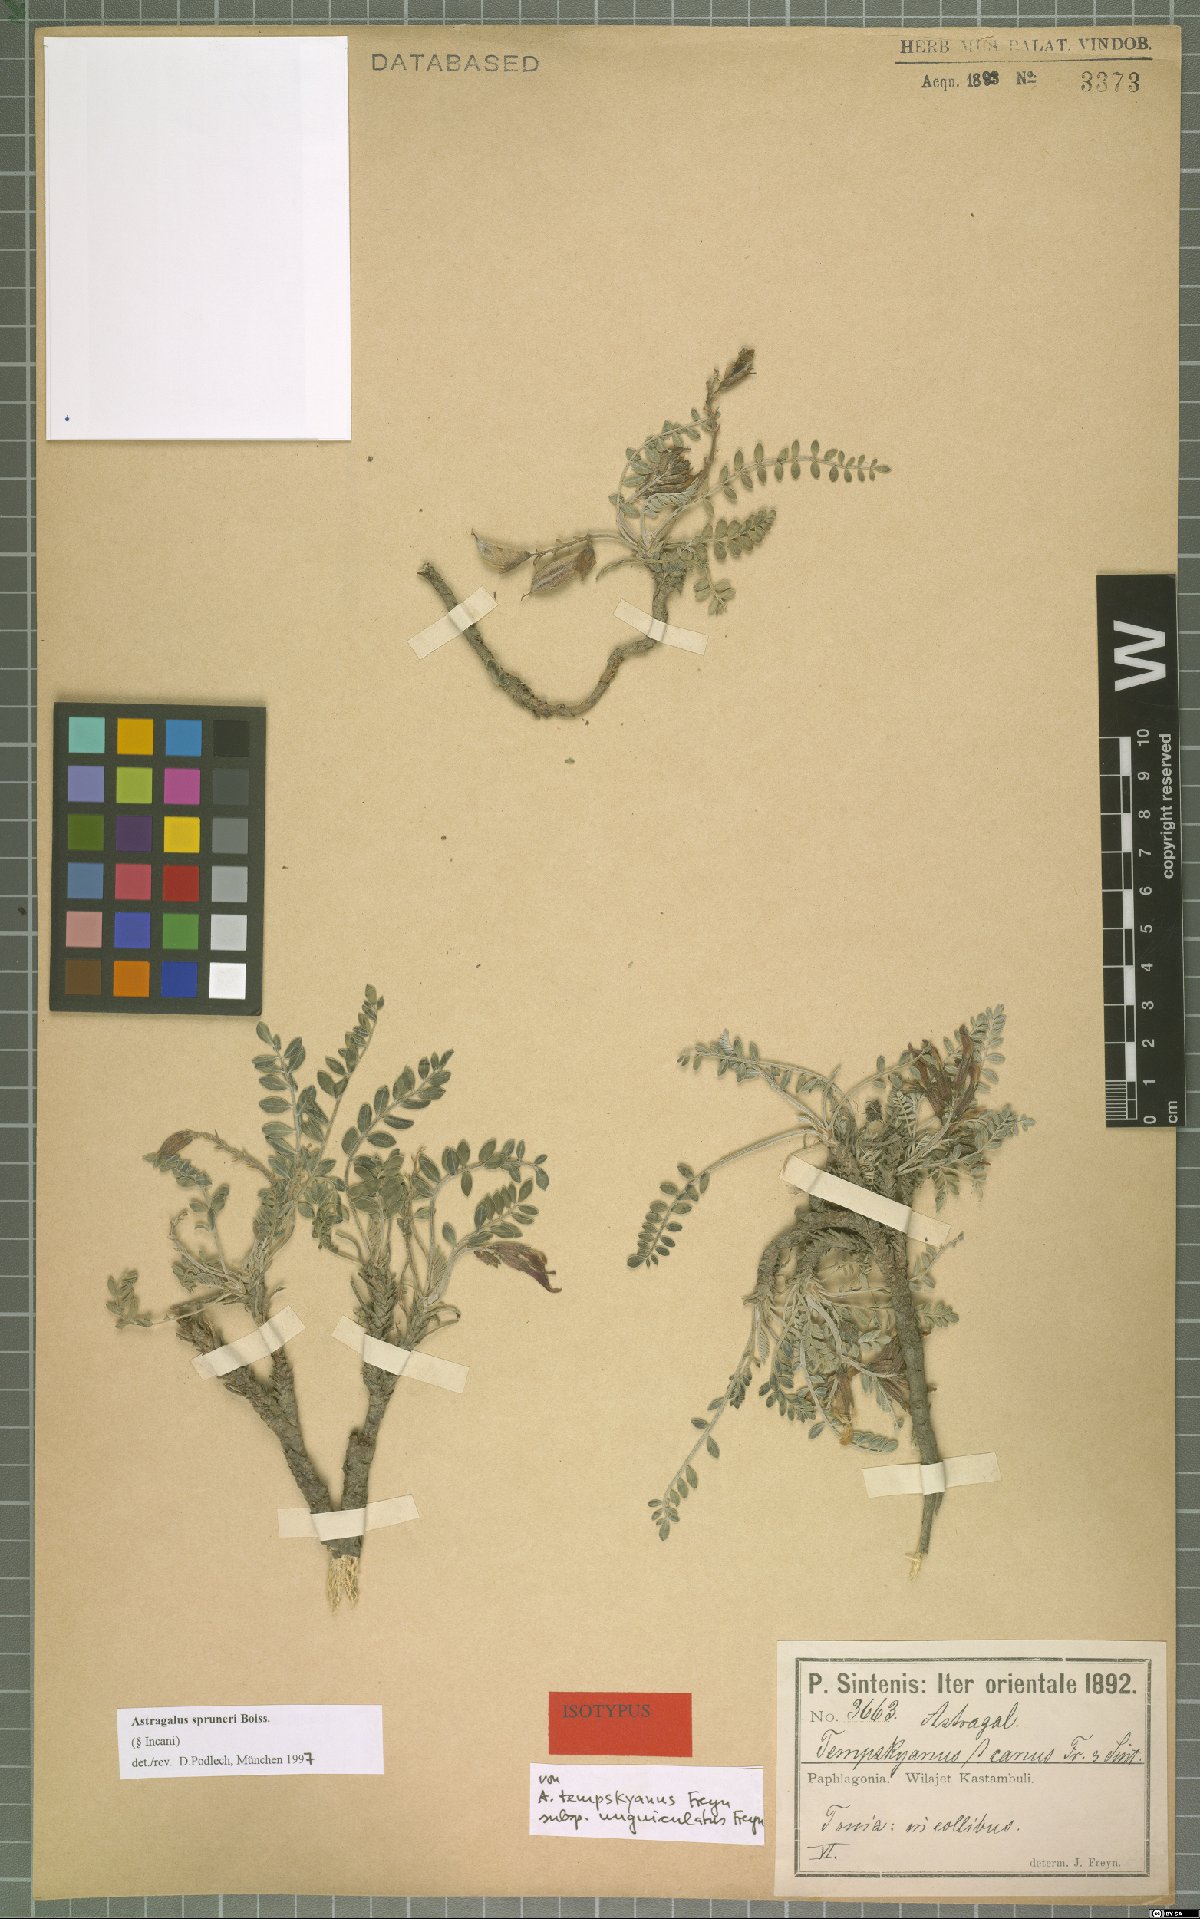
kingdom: Plantae
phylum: Tracheophyta
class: Magnoliopsida
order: Fabales
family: Fabaceae
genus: Astragalus
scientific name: Astragalus spruneri
